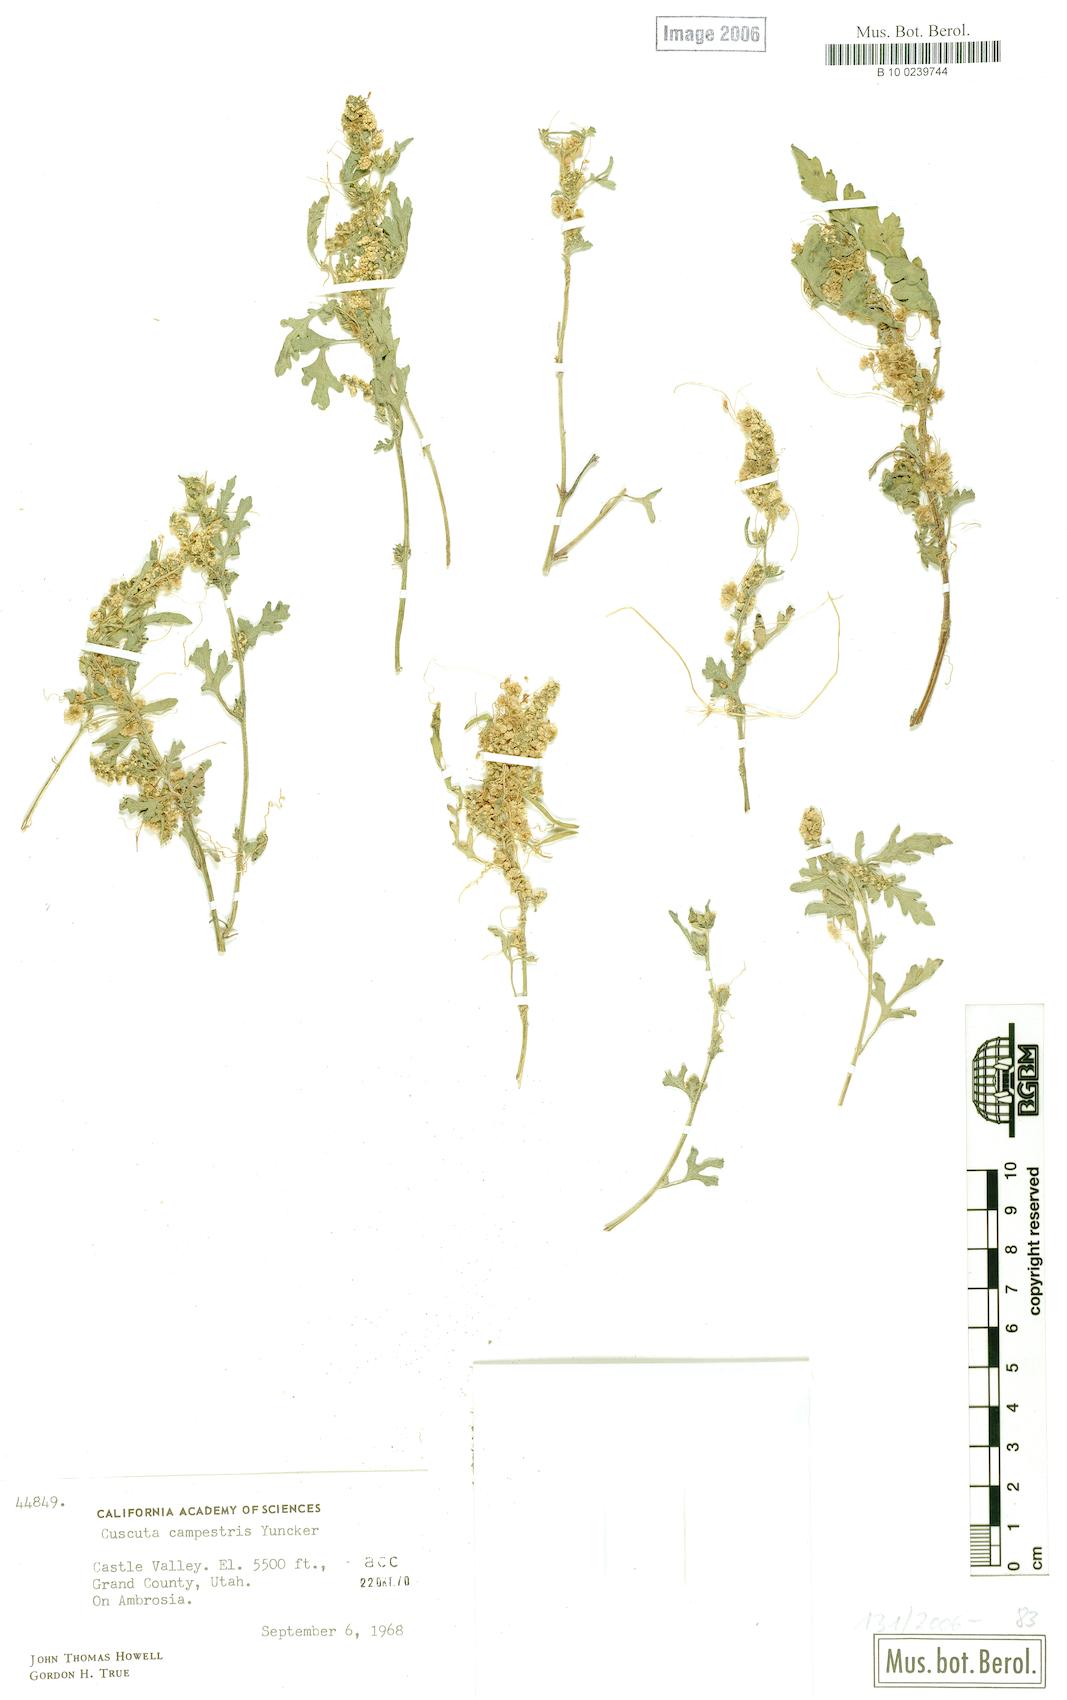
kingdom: Plantae
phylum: Tracheophyta
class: Magnoliopsida
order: Solanales
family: Convolvulaceae
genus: Cuscuta
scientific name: Cuscuta campestris
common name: Yellow dodder
